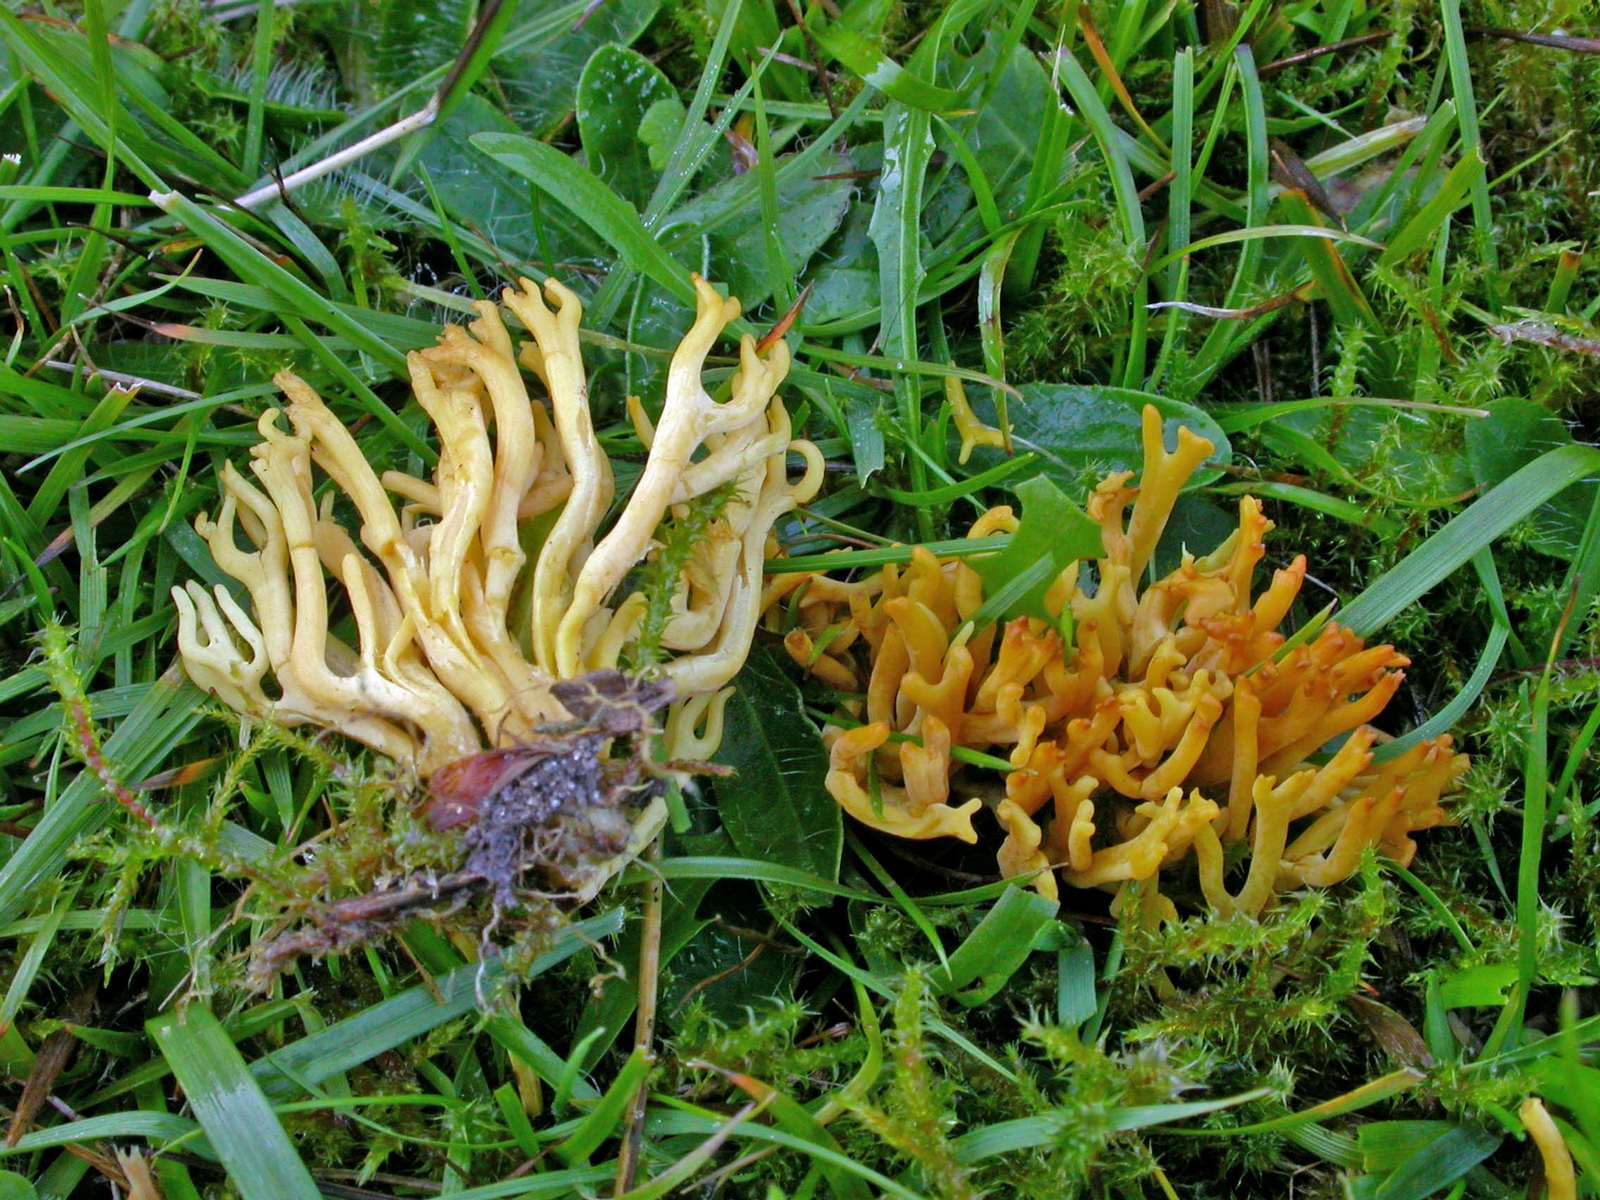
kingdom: Fungi
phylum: Basidiomycota
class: Agaricomycetes
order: Agaricales
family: Clavariaceae
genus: Clavulinopsis
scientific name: Clavulinopsis corniculata
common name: eng-køllesvamp
